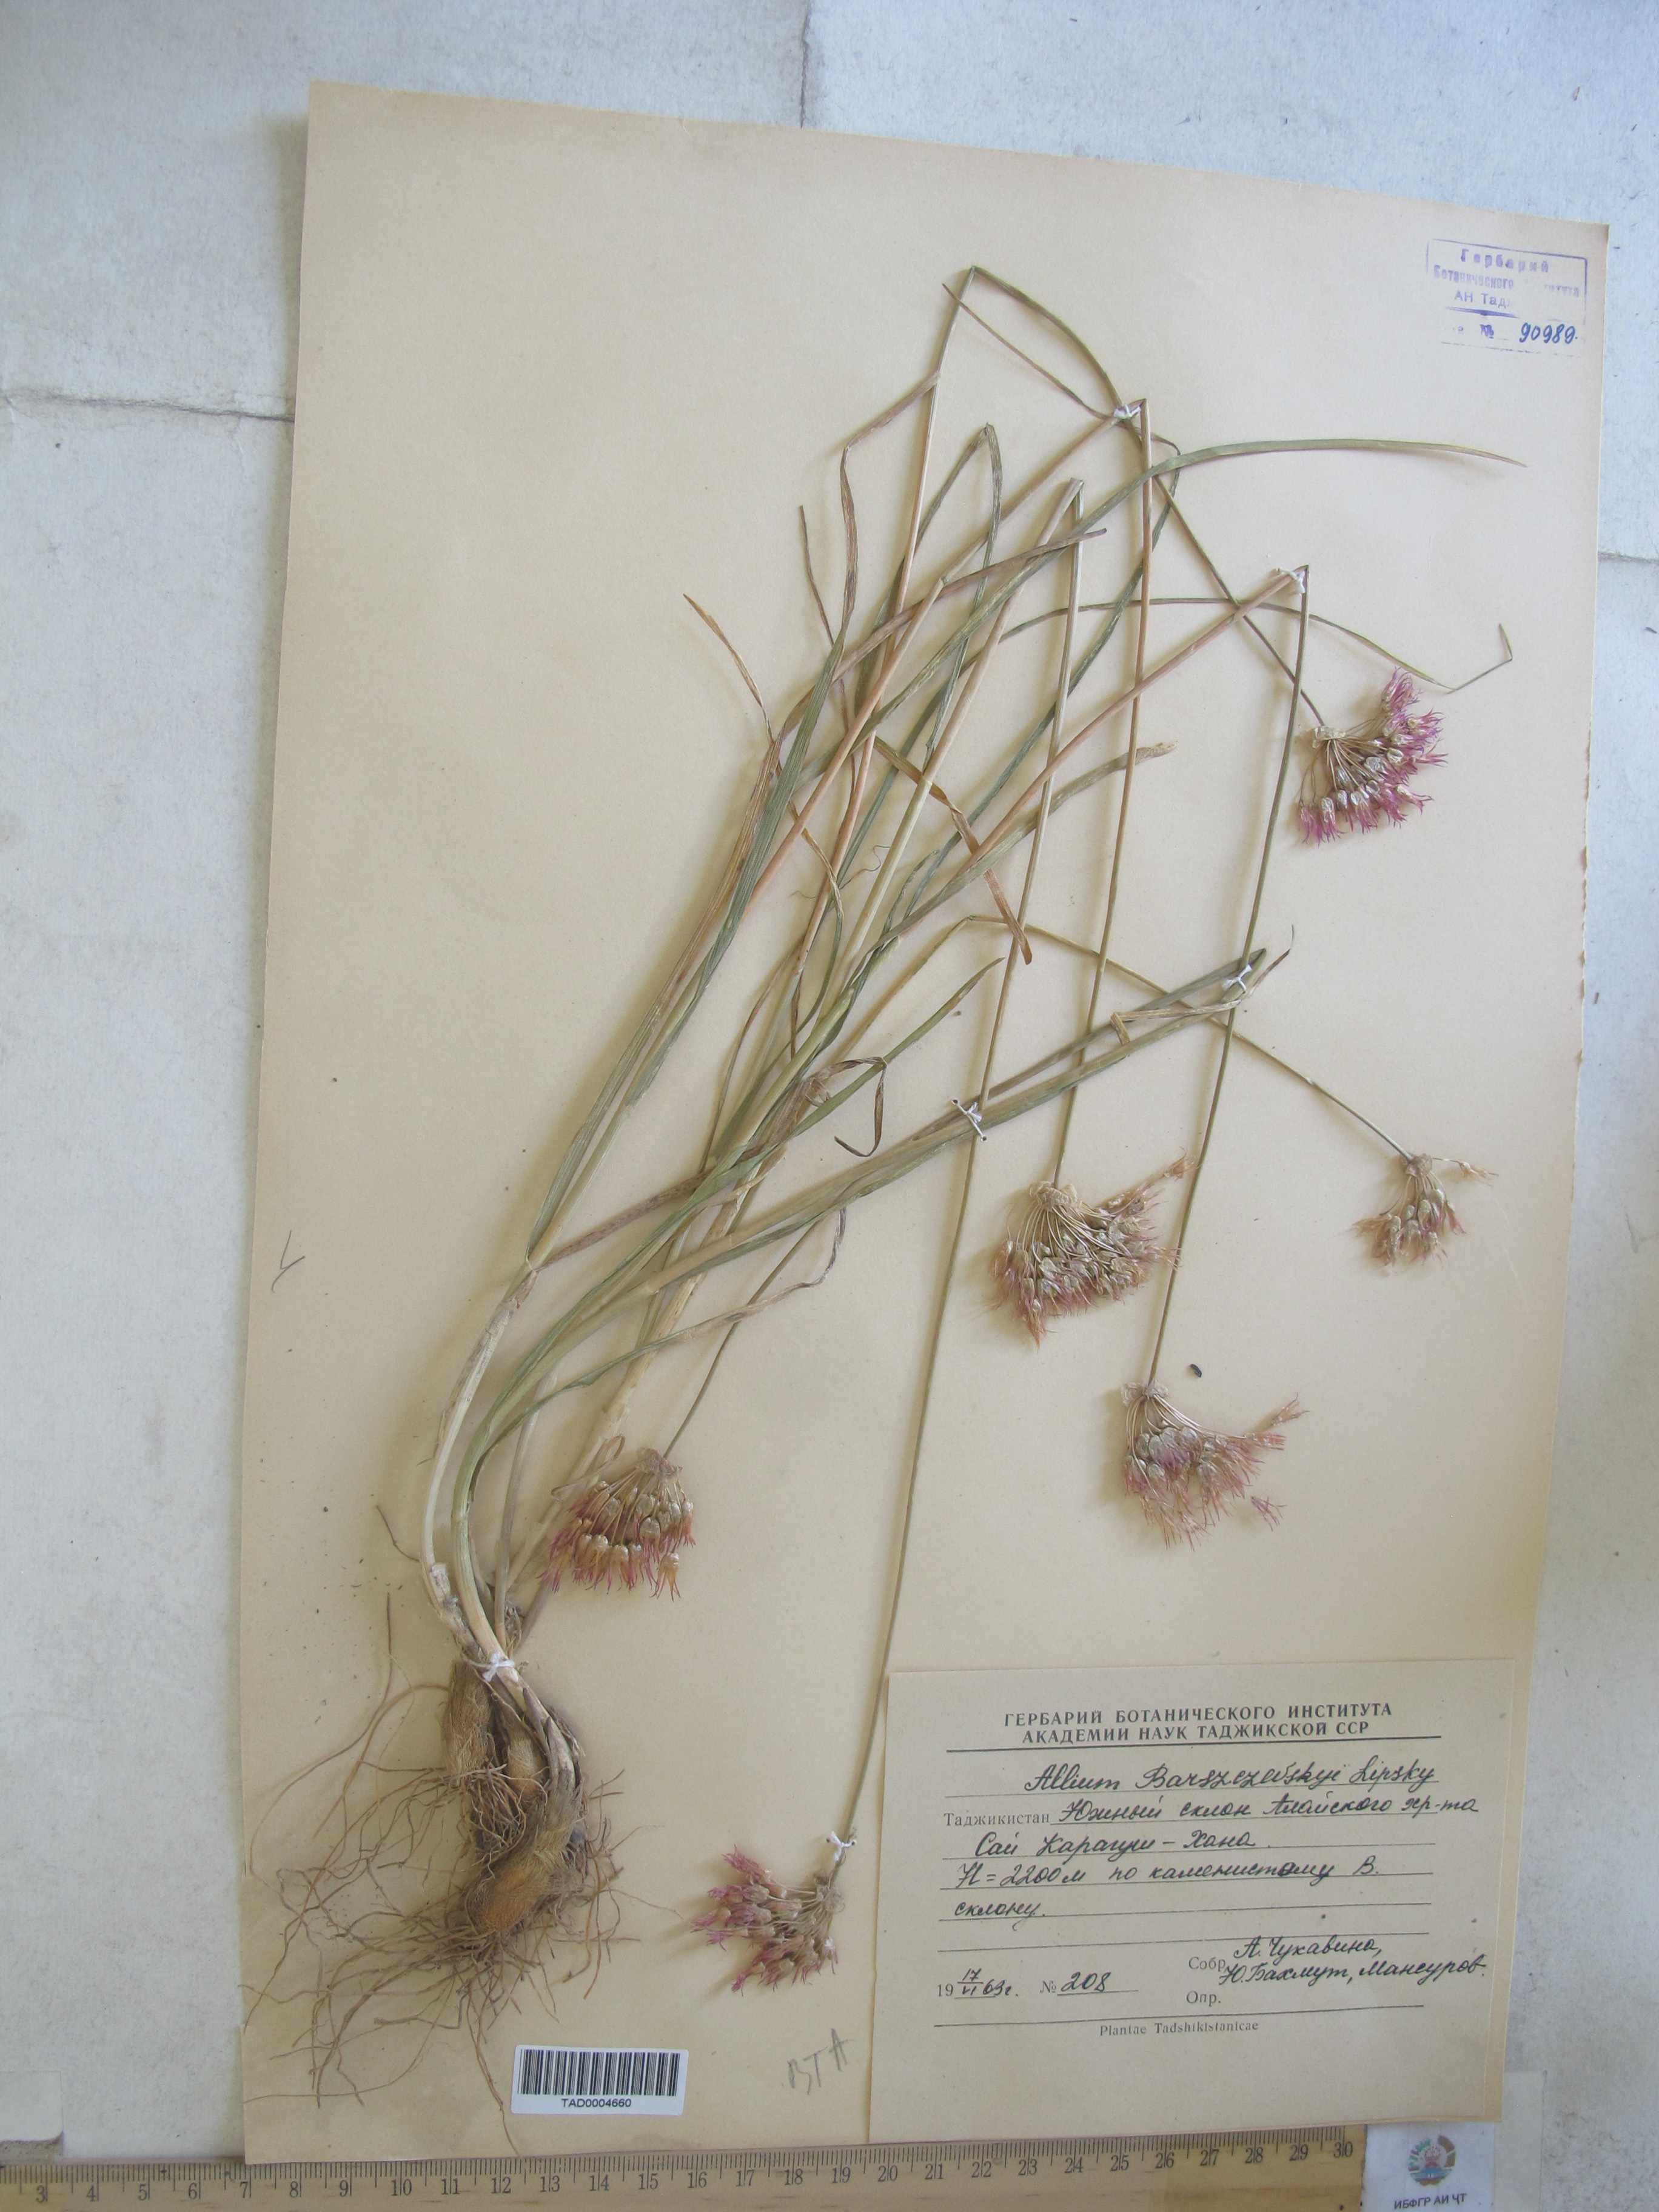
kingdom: Plantae
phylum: Tracheophyta
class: Liliopsida
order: Asparagales
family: Amaryllidaceae
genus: Allium
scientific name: Allium barsczewskii
